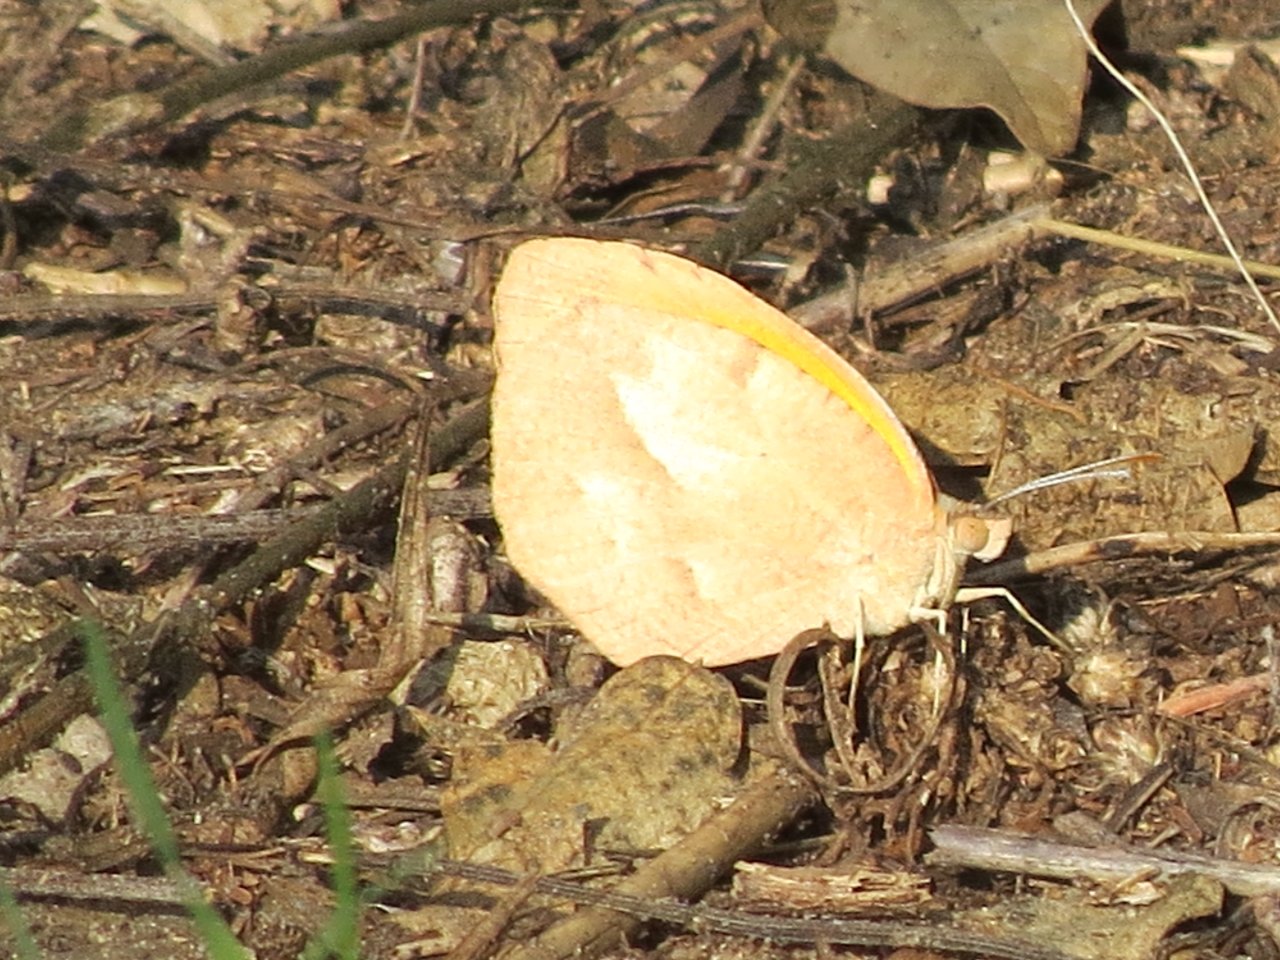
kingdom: Animalia
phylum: Arthropoda
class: Insecta
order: Lepidoptera
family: Pieridae
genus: Abaeis
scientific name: Abaeis nicippe
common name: Sleepy Orange
